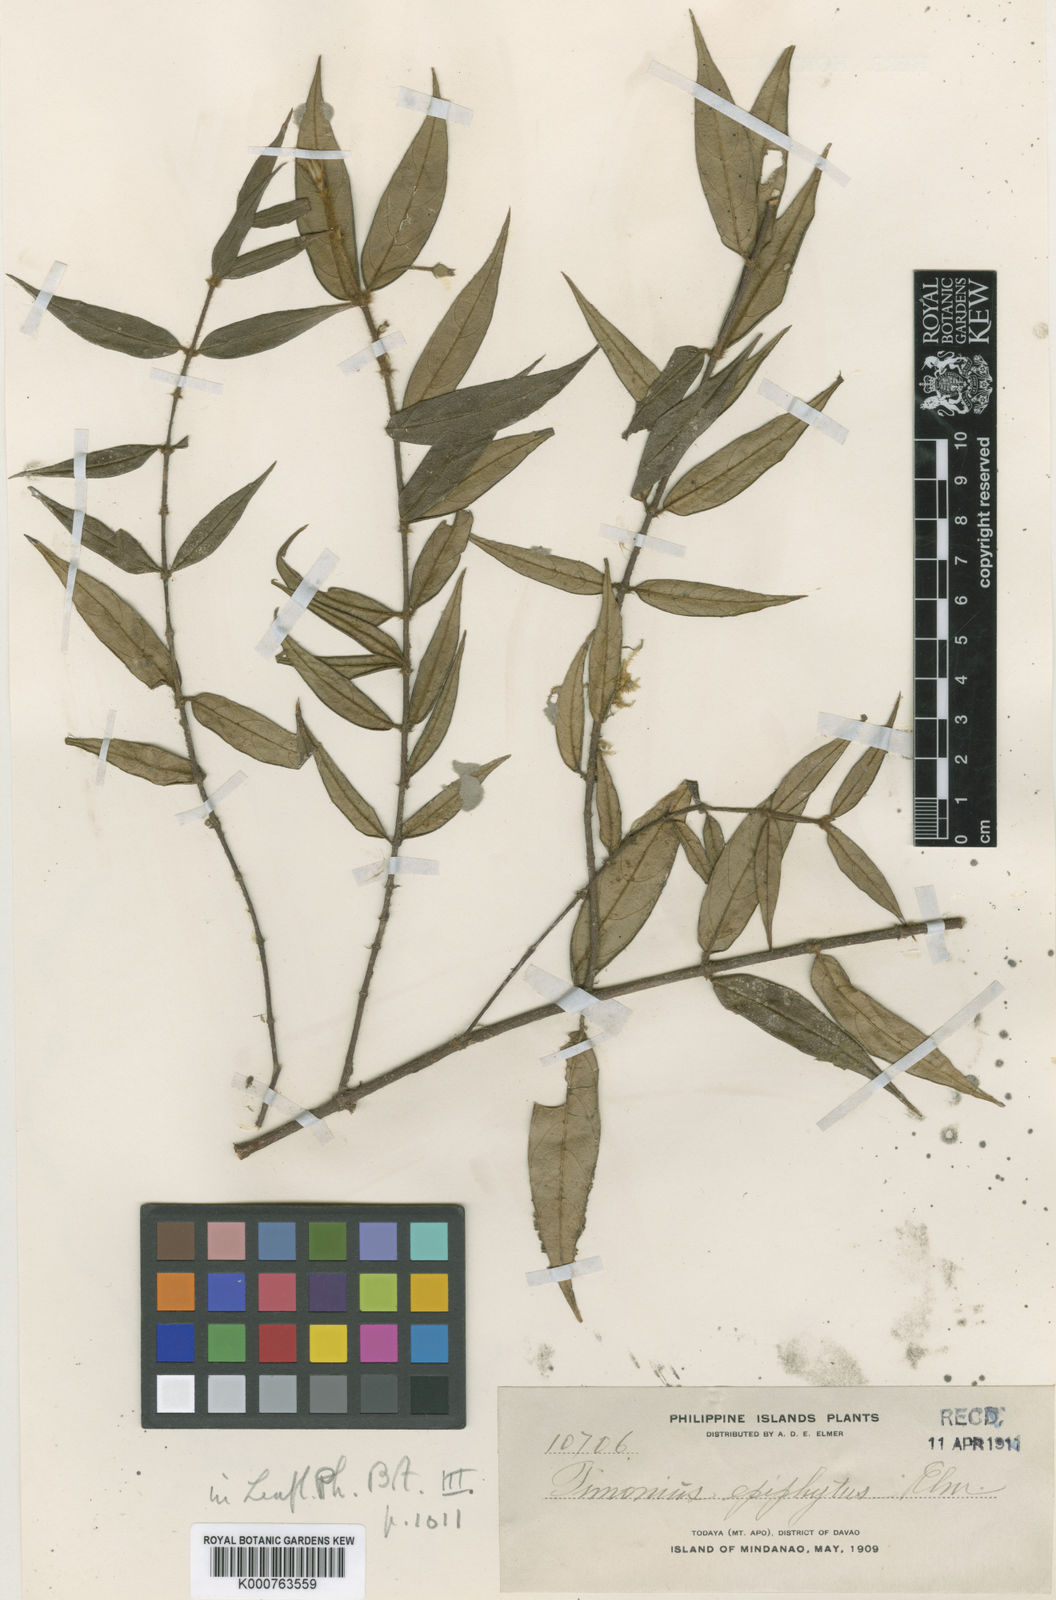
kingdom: Plantae
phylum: Tracheophyta
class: Magnoliopsida
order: Gentianales
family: Rubiaceae
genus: Timonius
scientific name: Timonius epiphyticus
